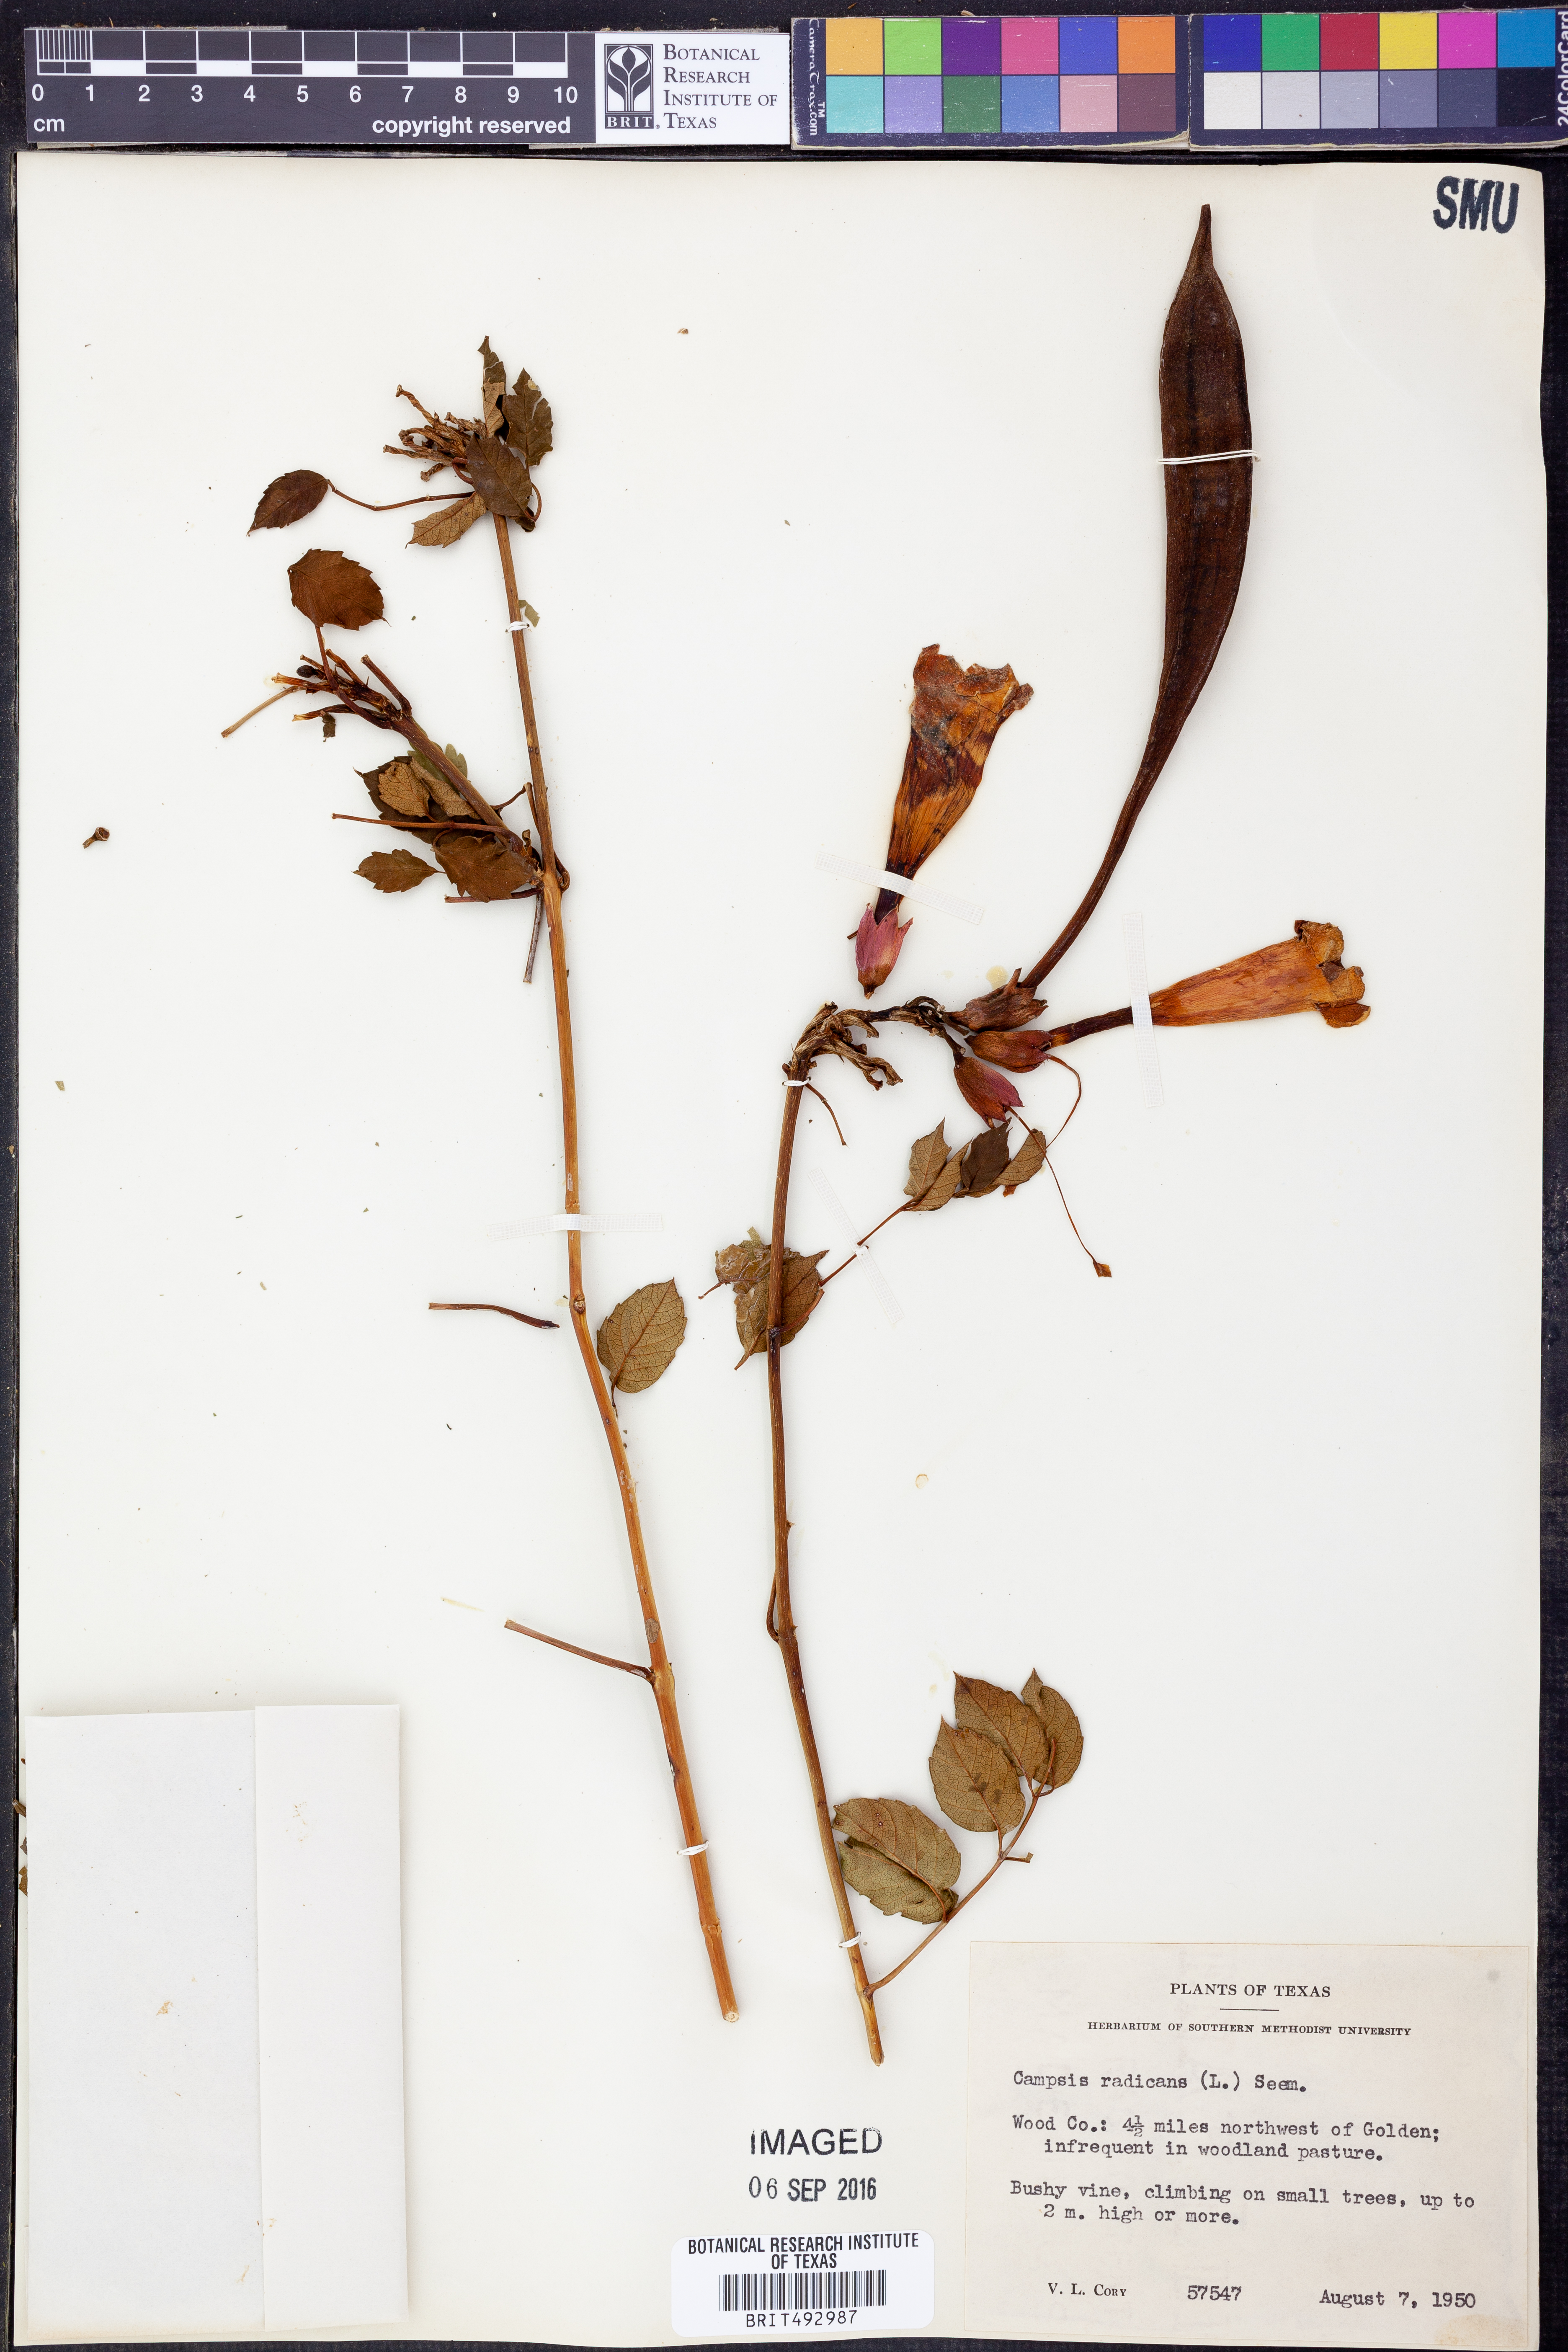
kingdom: Plantae
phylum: Tracheophyta
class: Magnoliopsida
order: Lamiales
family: Bignoniaceae
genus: Campsis
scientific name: Campsis radicans
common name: Trumpet-creeper
